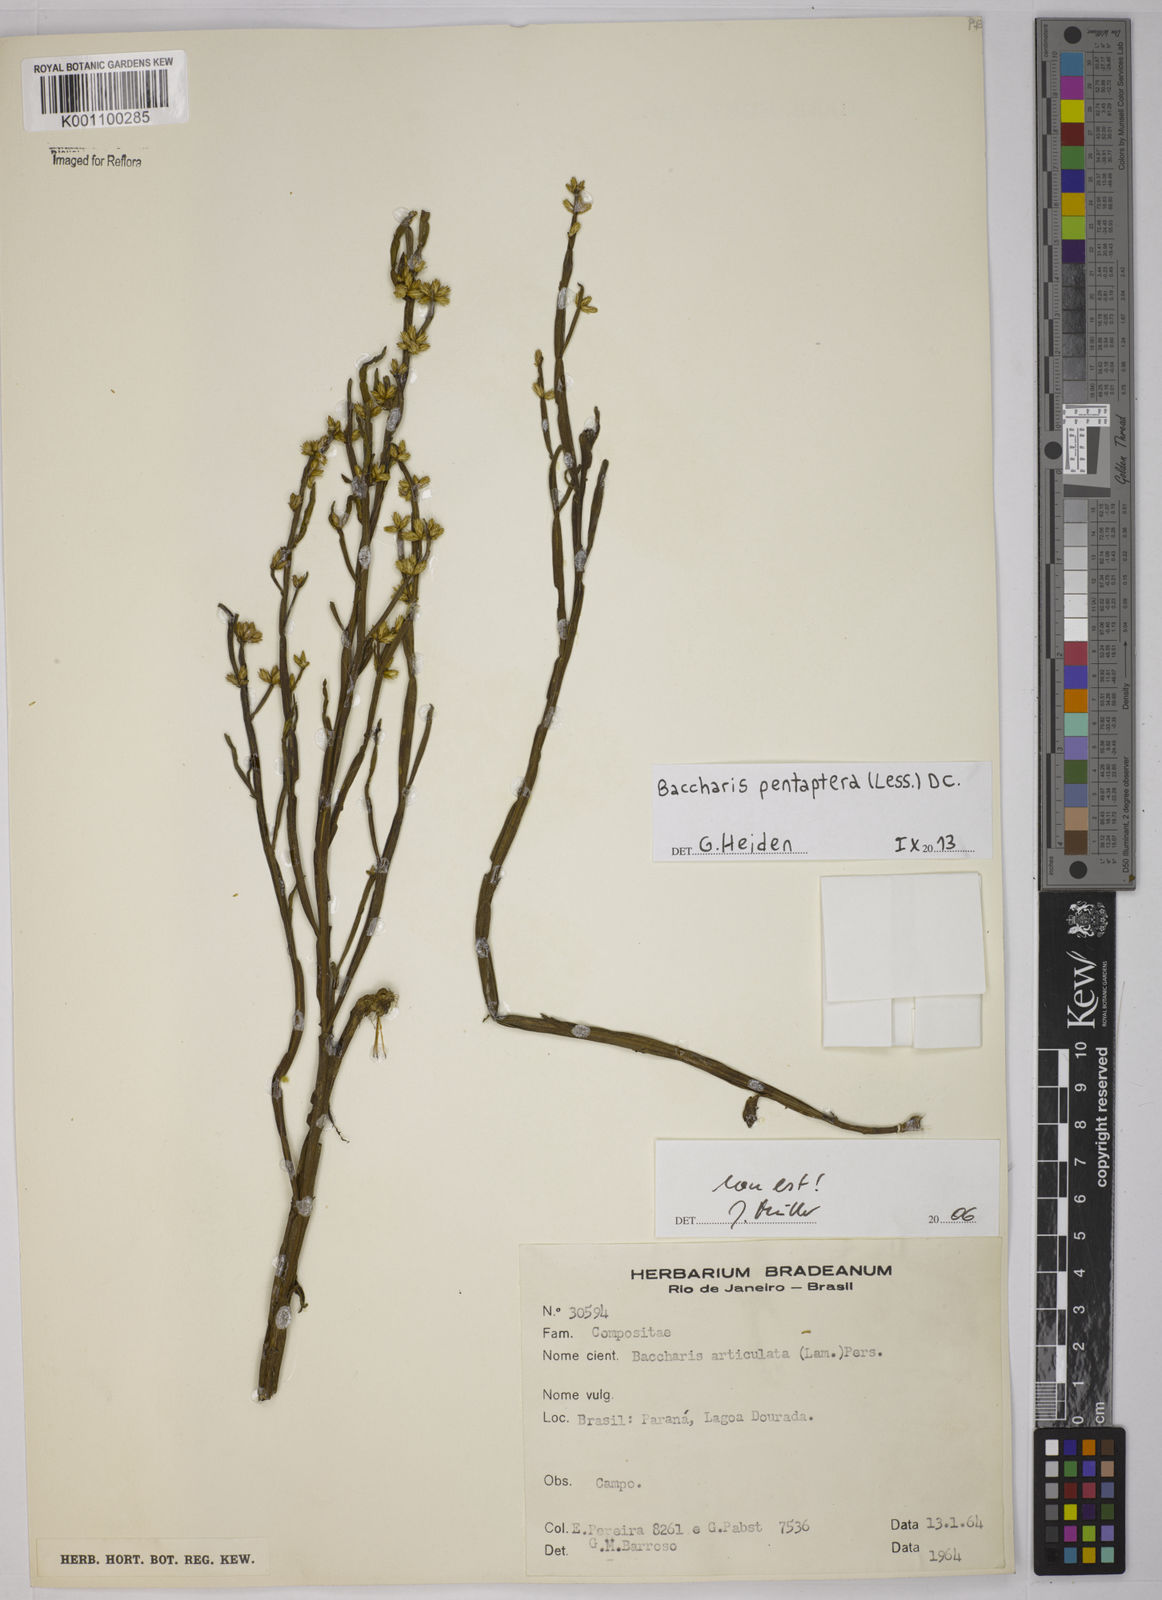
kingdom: Plantae
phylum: Tracheophyta
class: Magnoliopsida
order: Asterales
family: Asteraceae
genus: Baccharis
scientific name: Baccharis pentaptera
